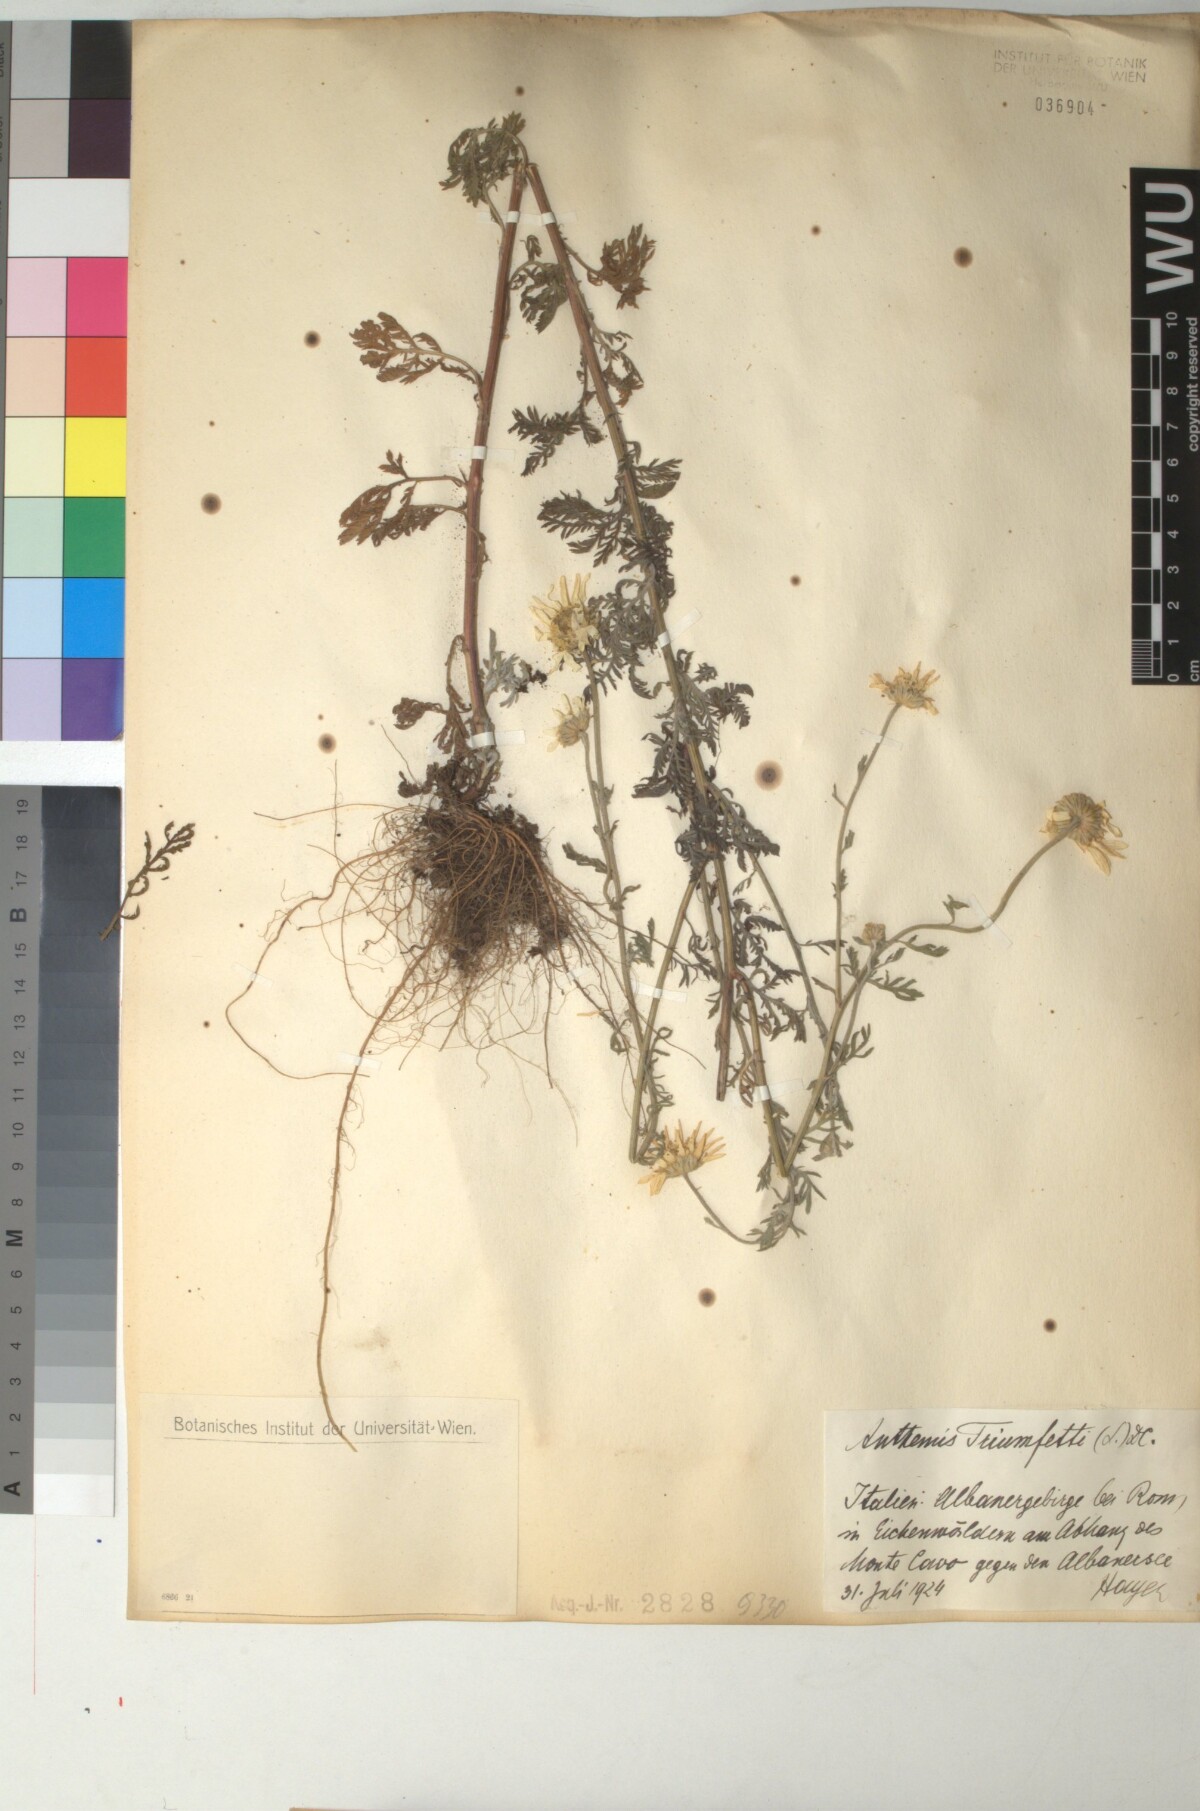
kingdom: Plantae
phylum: Tracheophyta
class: Magnoliopsida
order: Asterales
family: Asteraceae
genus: Cota
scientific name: Cota triumfetti
